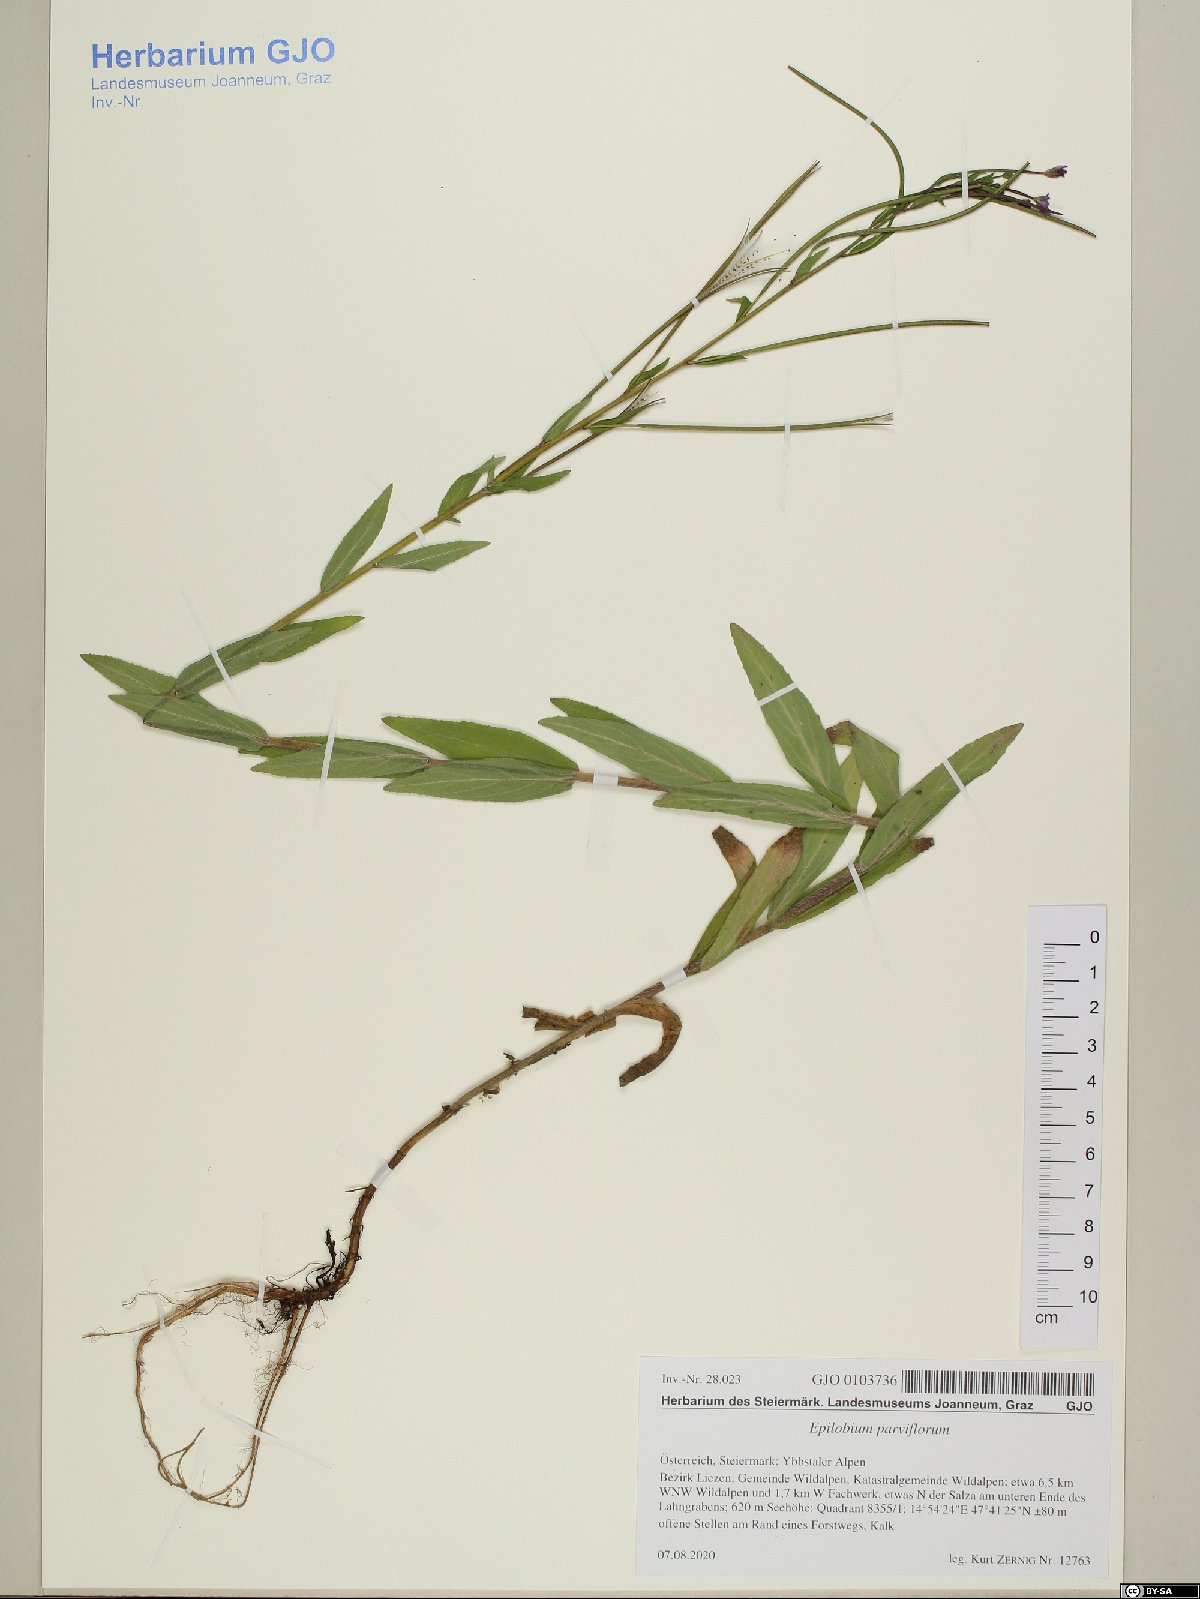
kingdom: Plantae
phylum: Tracheophyta
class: Magnoliopsida
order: Myrtales
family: Onagraceae
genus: Epilobium
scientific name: Epilobium parviflorum
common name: Hoary willowherb
